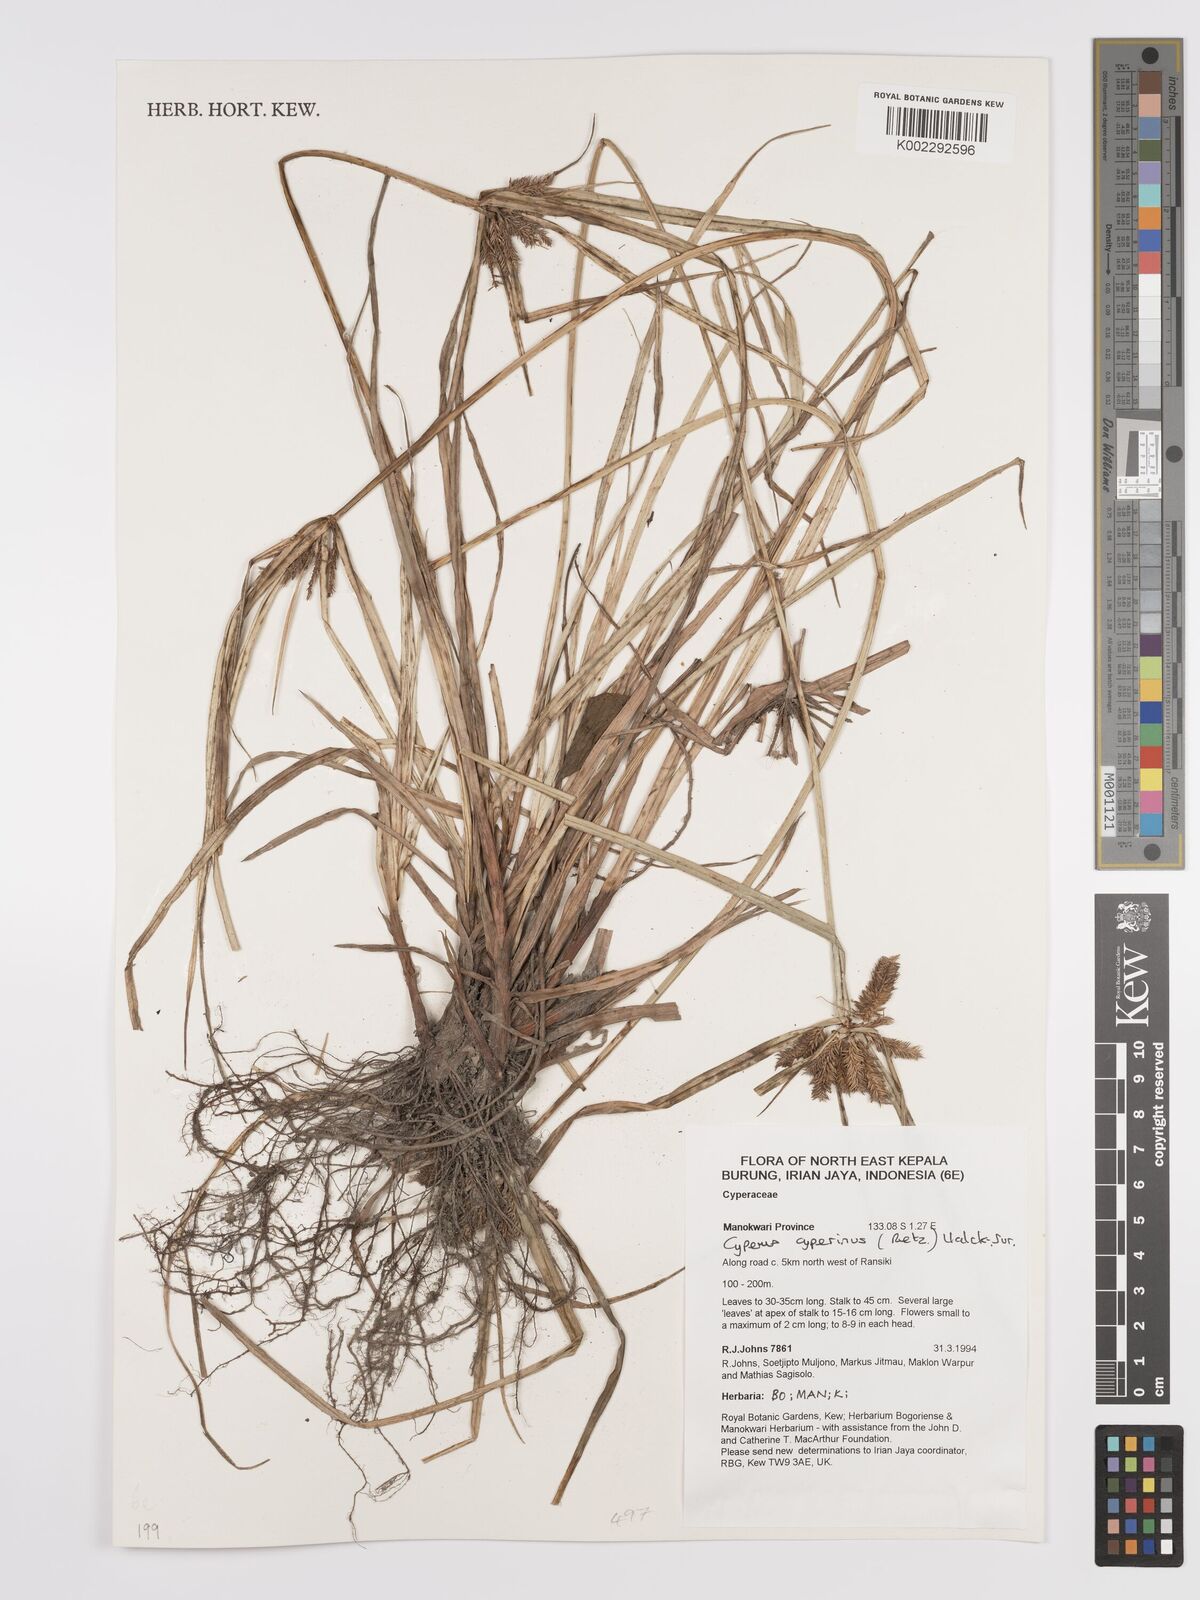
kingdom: Plantae
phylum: Tracheophyta
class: Liliopsida
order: Poales
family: Cyperaceae
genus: Cyperus
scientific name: Cyperus cyperinus
